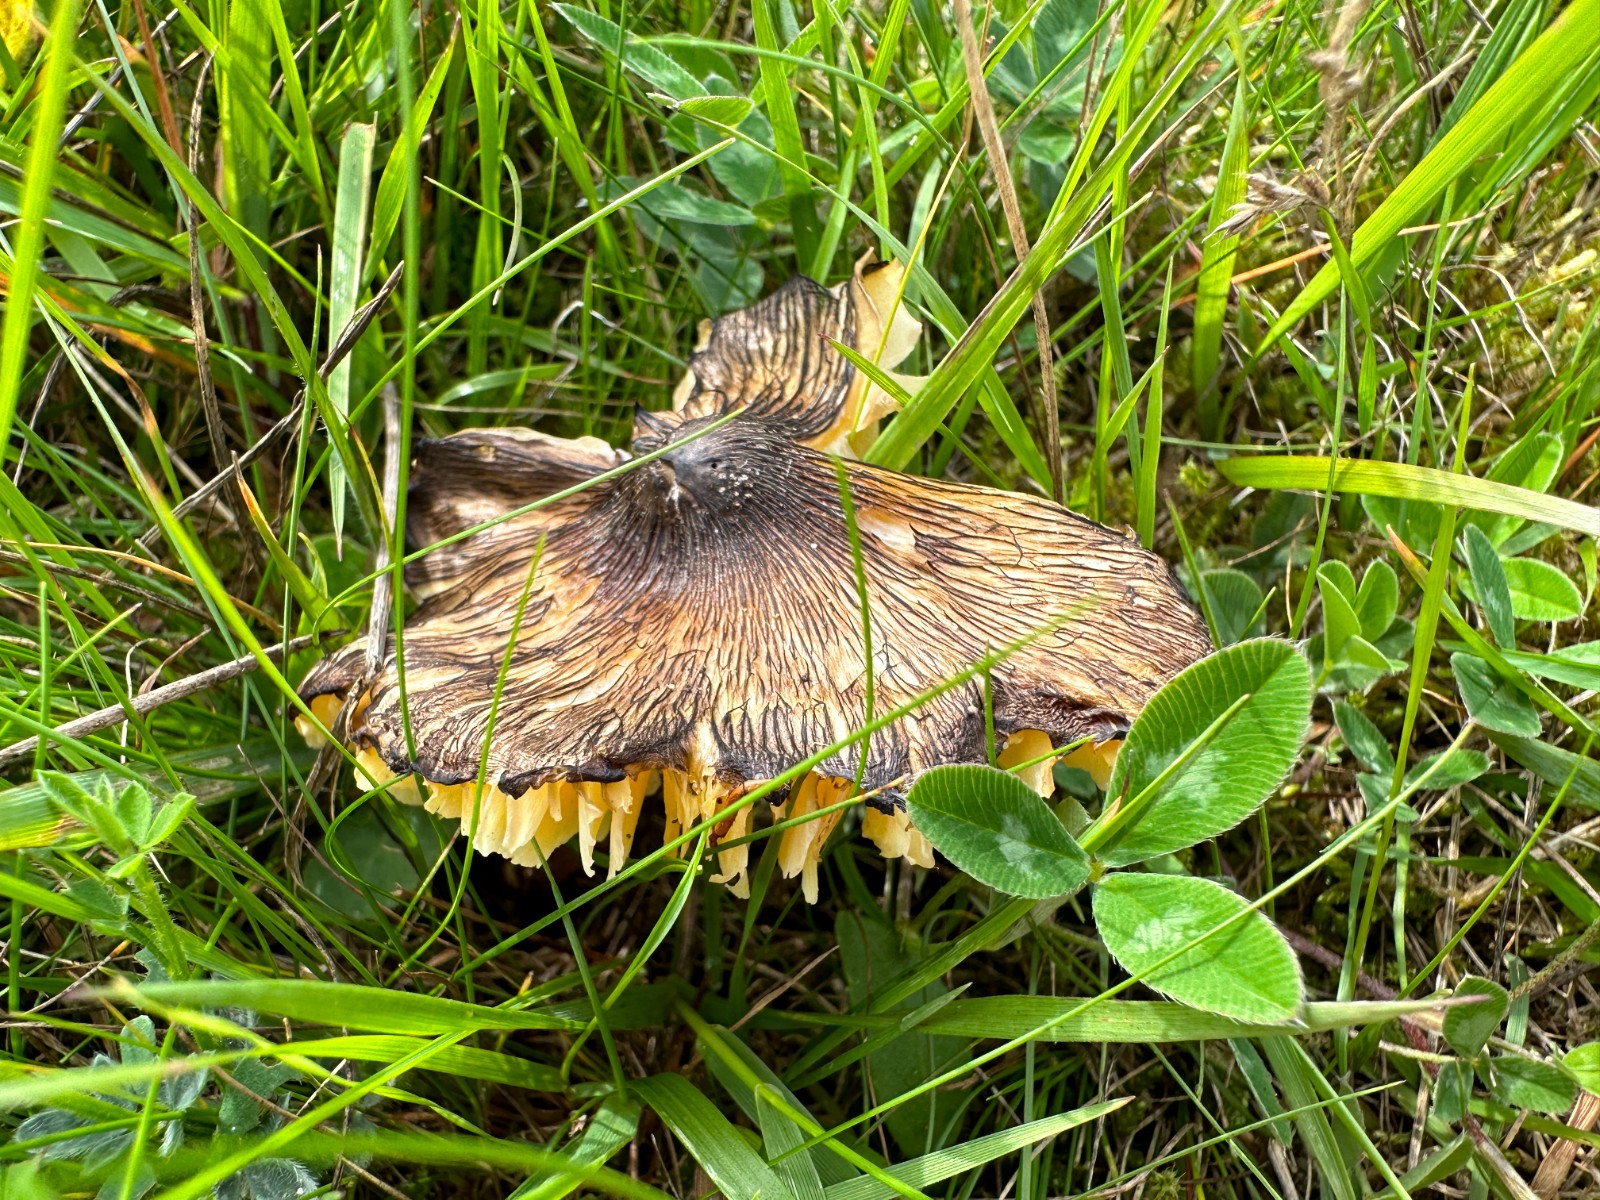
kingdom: Fungi
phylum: Basidiomycota
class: Agaricomycetes
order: Agaricales
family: Hygrophoraceae
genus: Hygrocybe
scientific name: Hygrocybe spadicea
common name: daddelbrun vokshat
